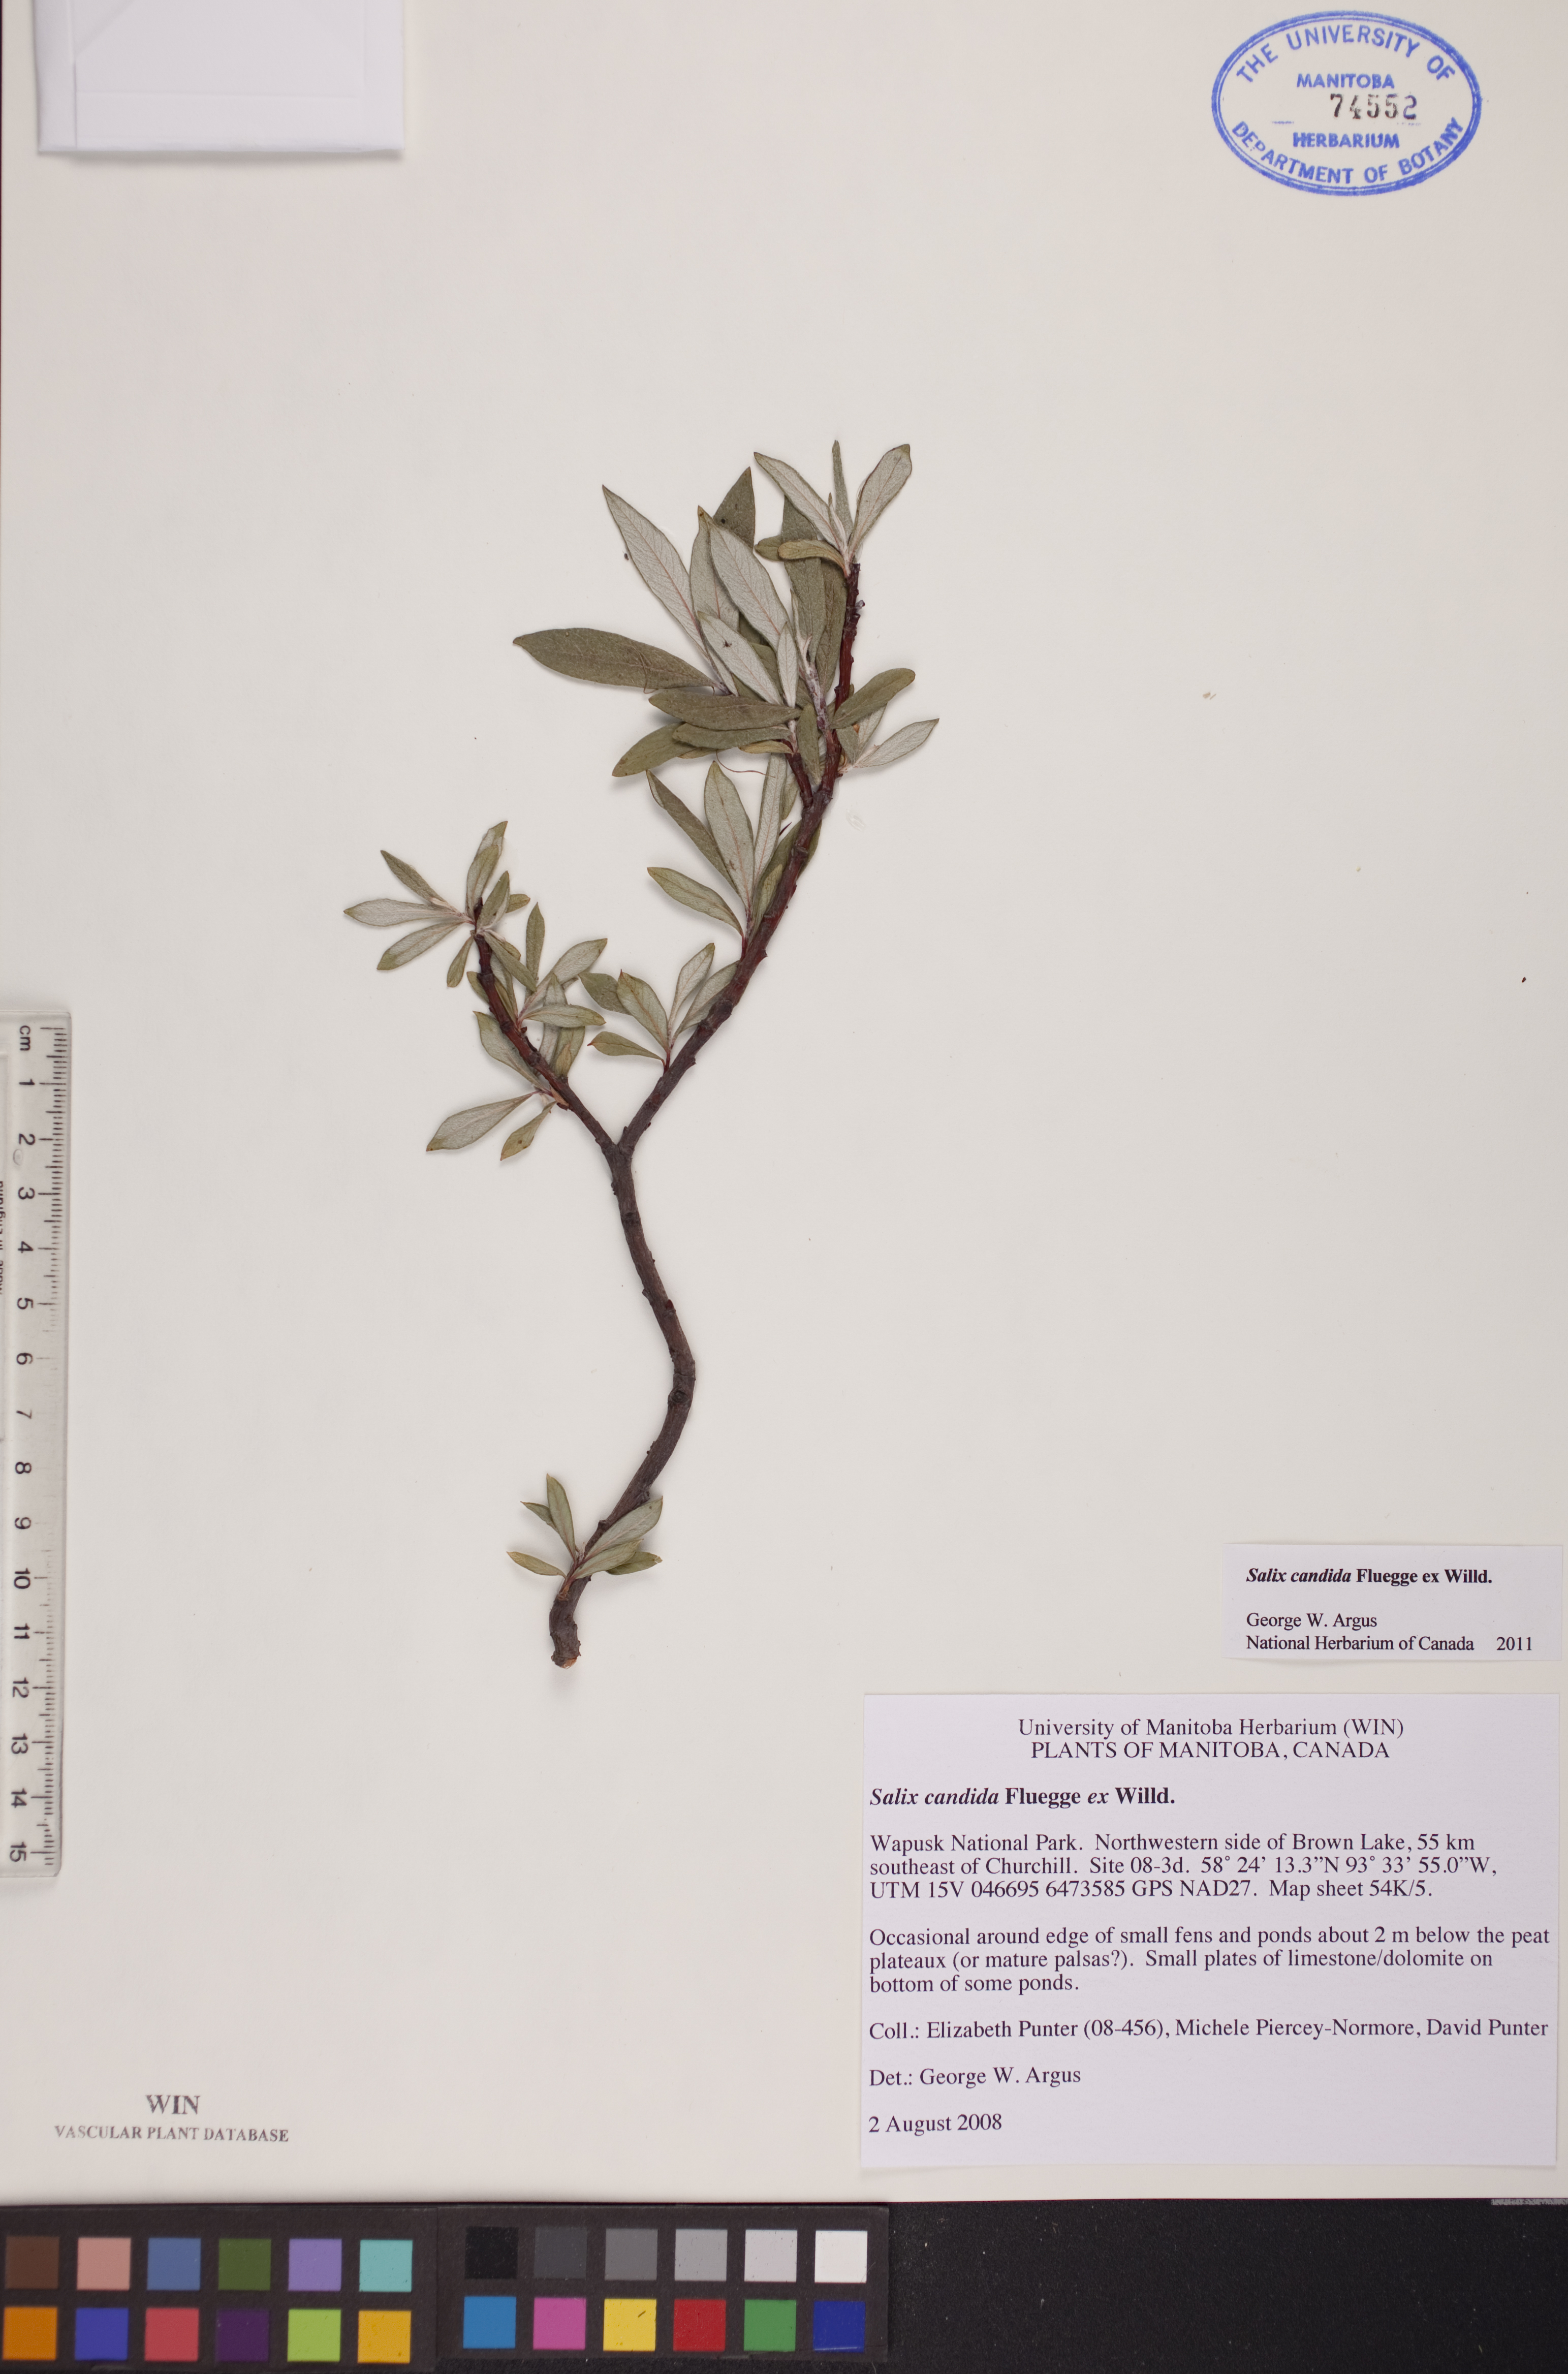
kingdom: Plantae
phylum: Tracheophyta
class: Magnoliopsida
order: Malpighiales
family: Salicaceae
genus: Salix
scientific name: Salix candida
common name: Hoary willow
